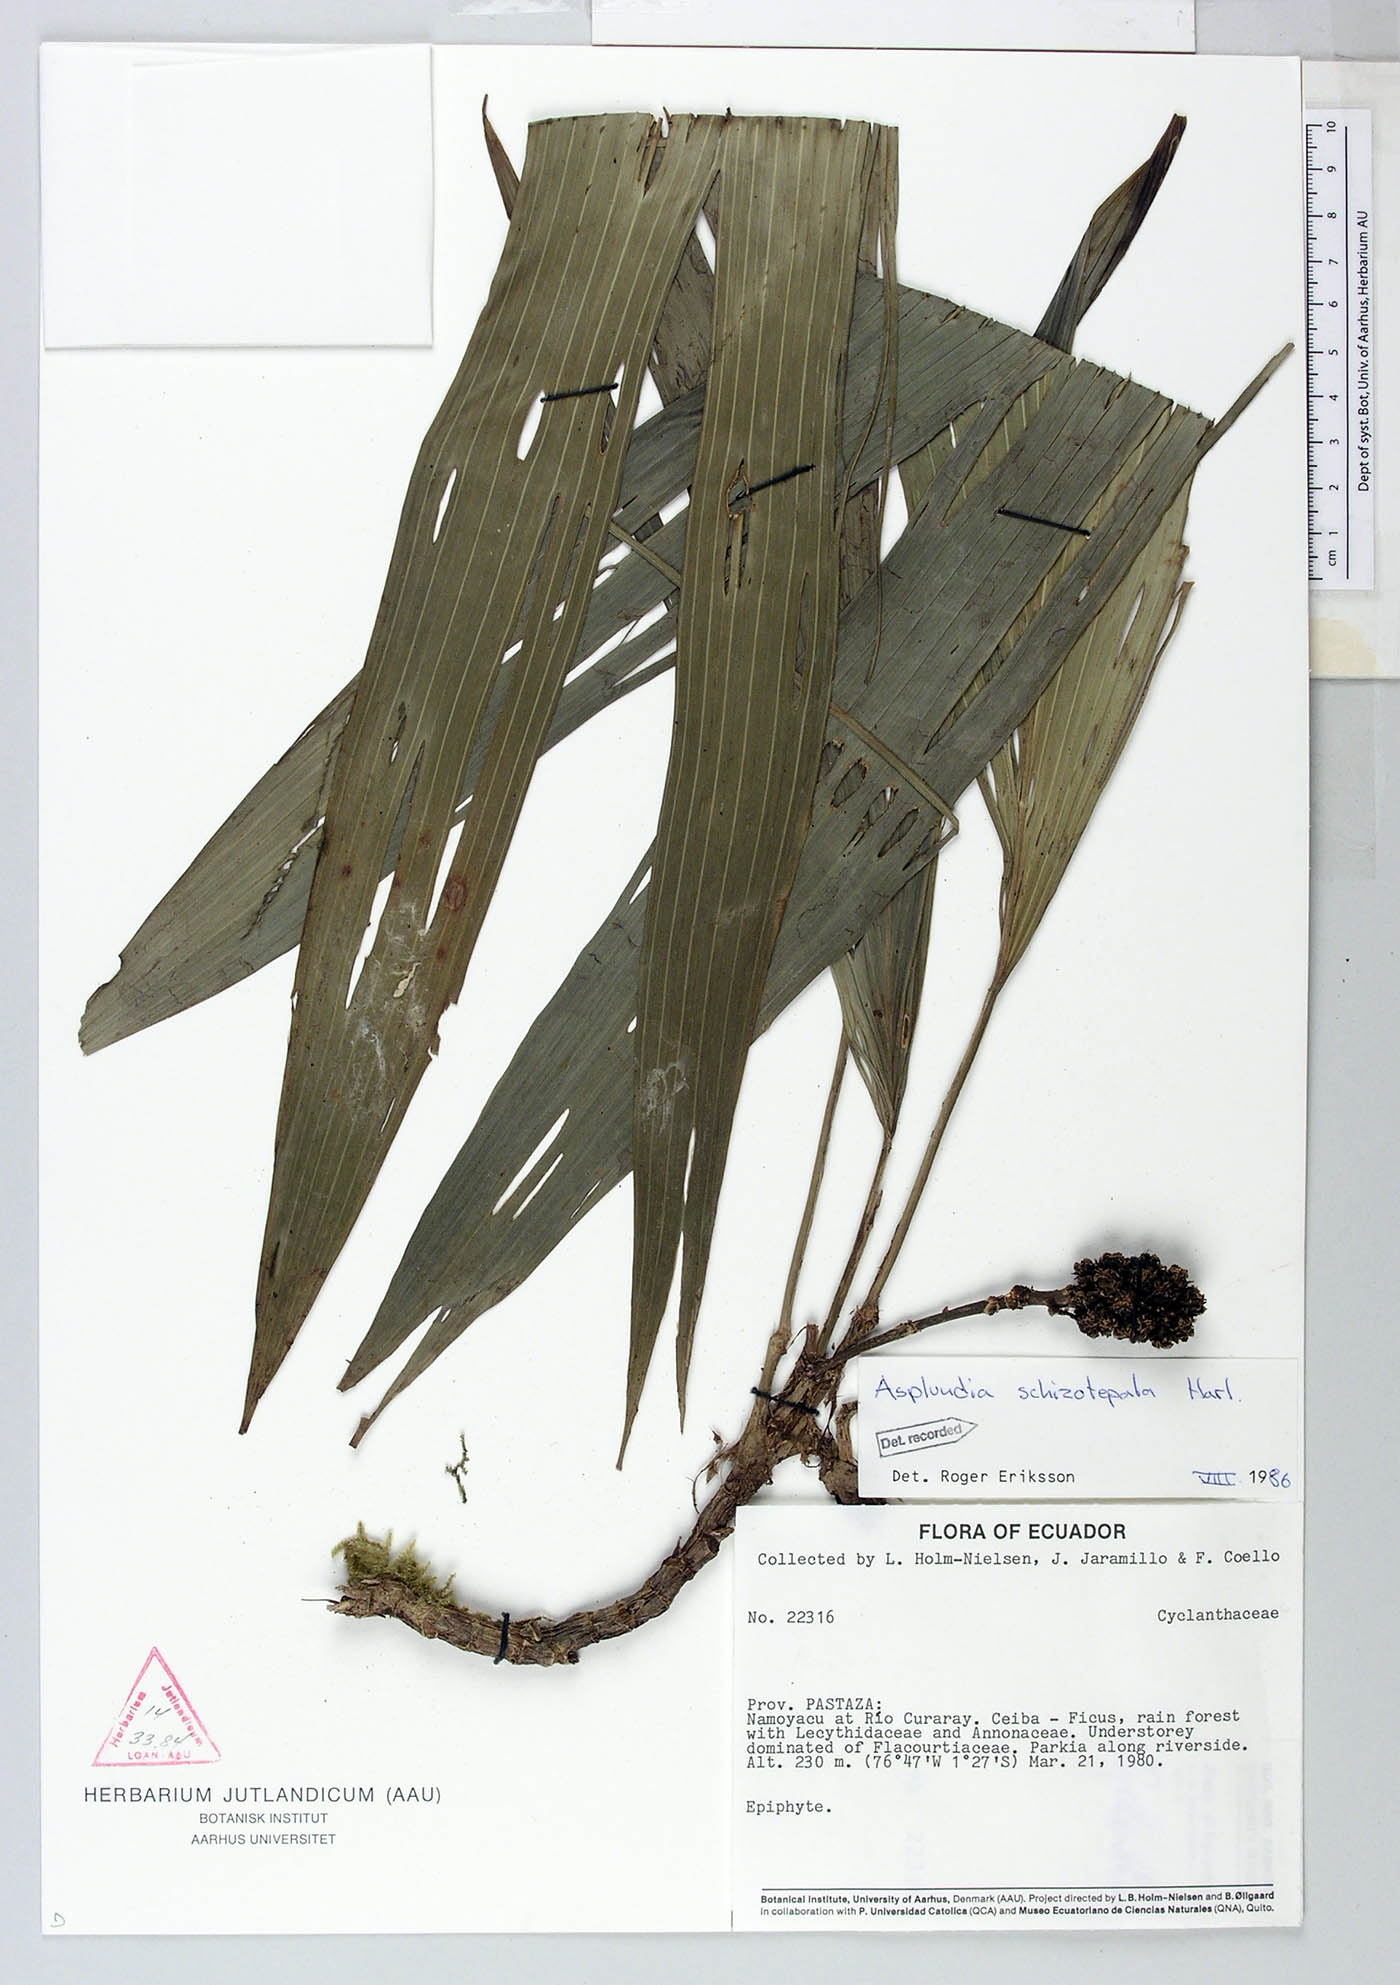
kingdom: Plantae
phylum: Tracheophyta
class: Liliopsida
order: Pandanales
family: Cyclanthaceae
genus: Asplundia
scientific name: Asplundia schizotepala
